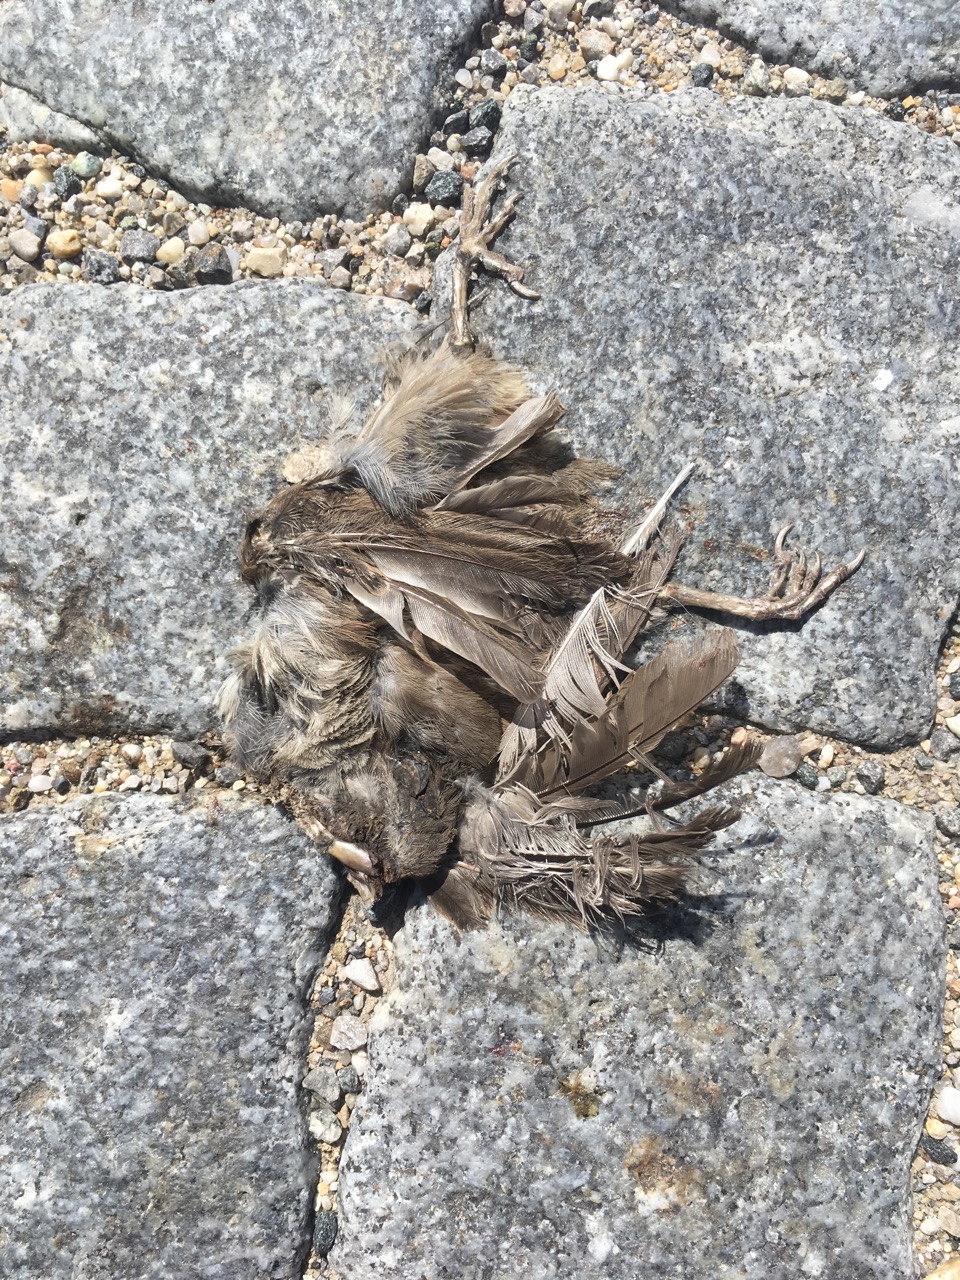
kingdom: Animalia
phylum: Chordata
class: Aves
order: Passeriformes
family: Passeridae
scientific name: Passeridae
